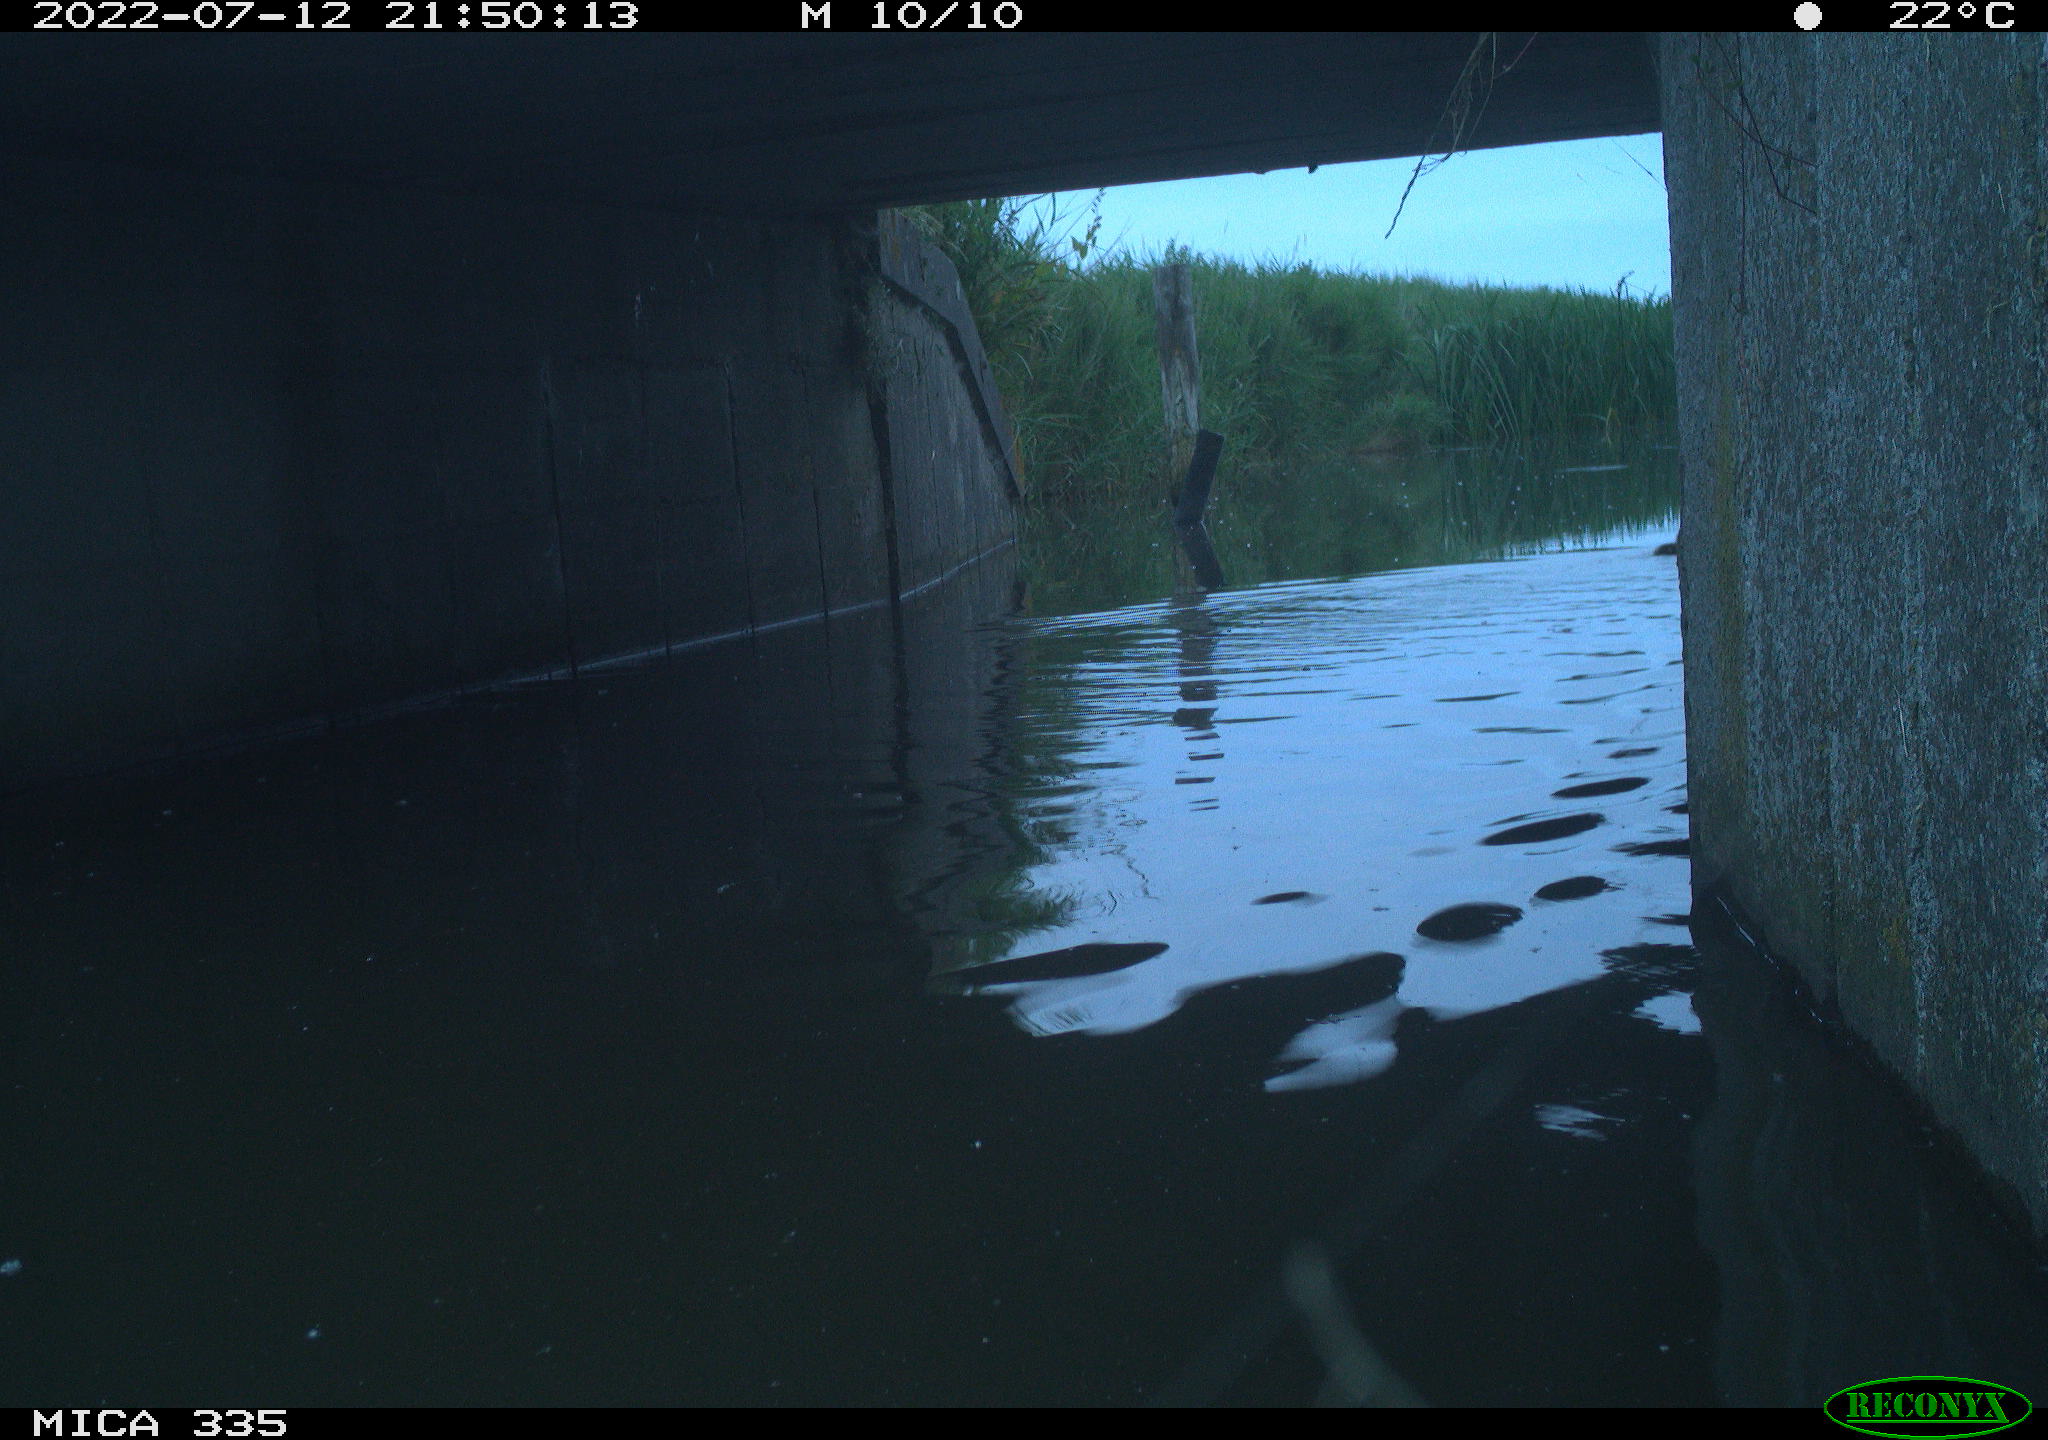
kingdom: Animalia
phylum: Chordata
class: Aves
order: Anseriformes
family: Anatidae
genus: Anas
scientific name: Anas platyrhynchos
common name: Mallard
